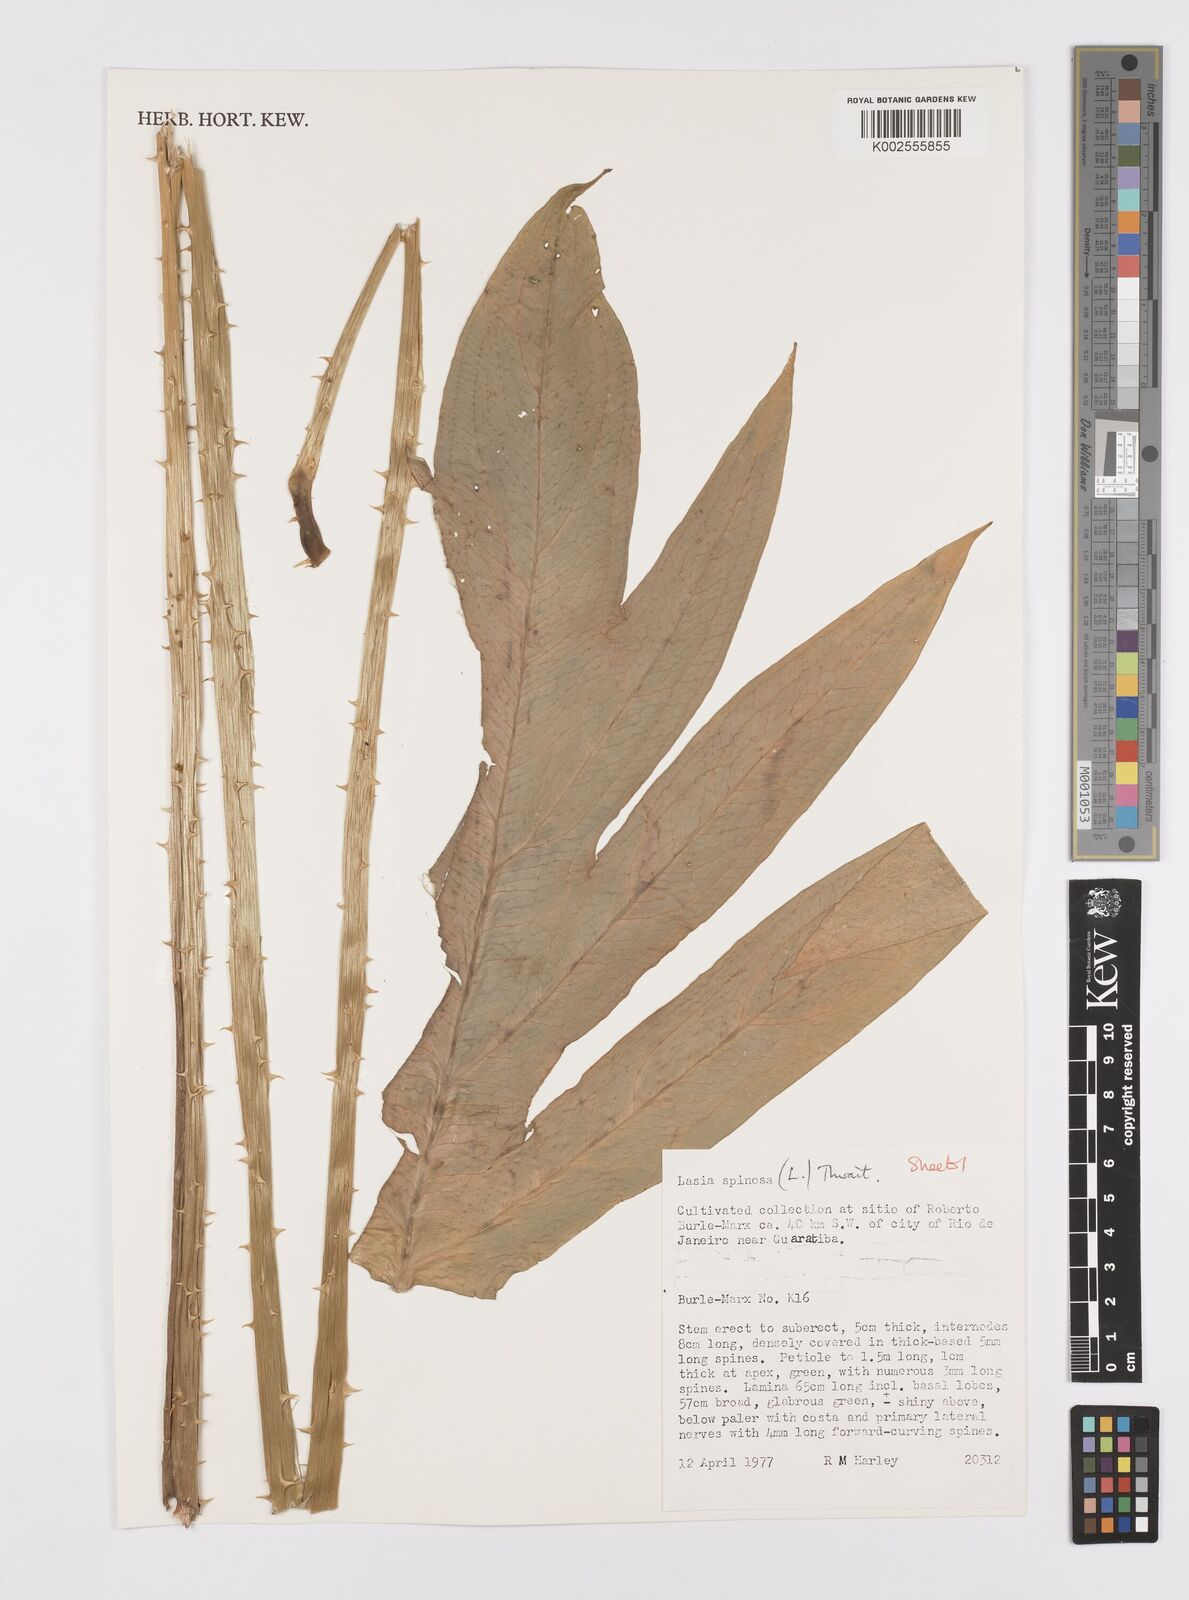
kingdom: Plantae
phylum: Tracheophyta
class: Liliopsida
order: Alismatales
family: Araceae
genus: Lasia
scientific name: Lasia spinosa
